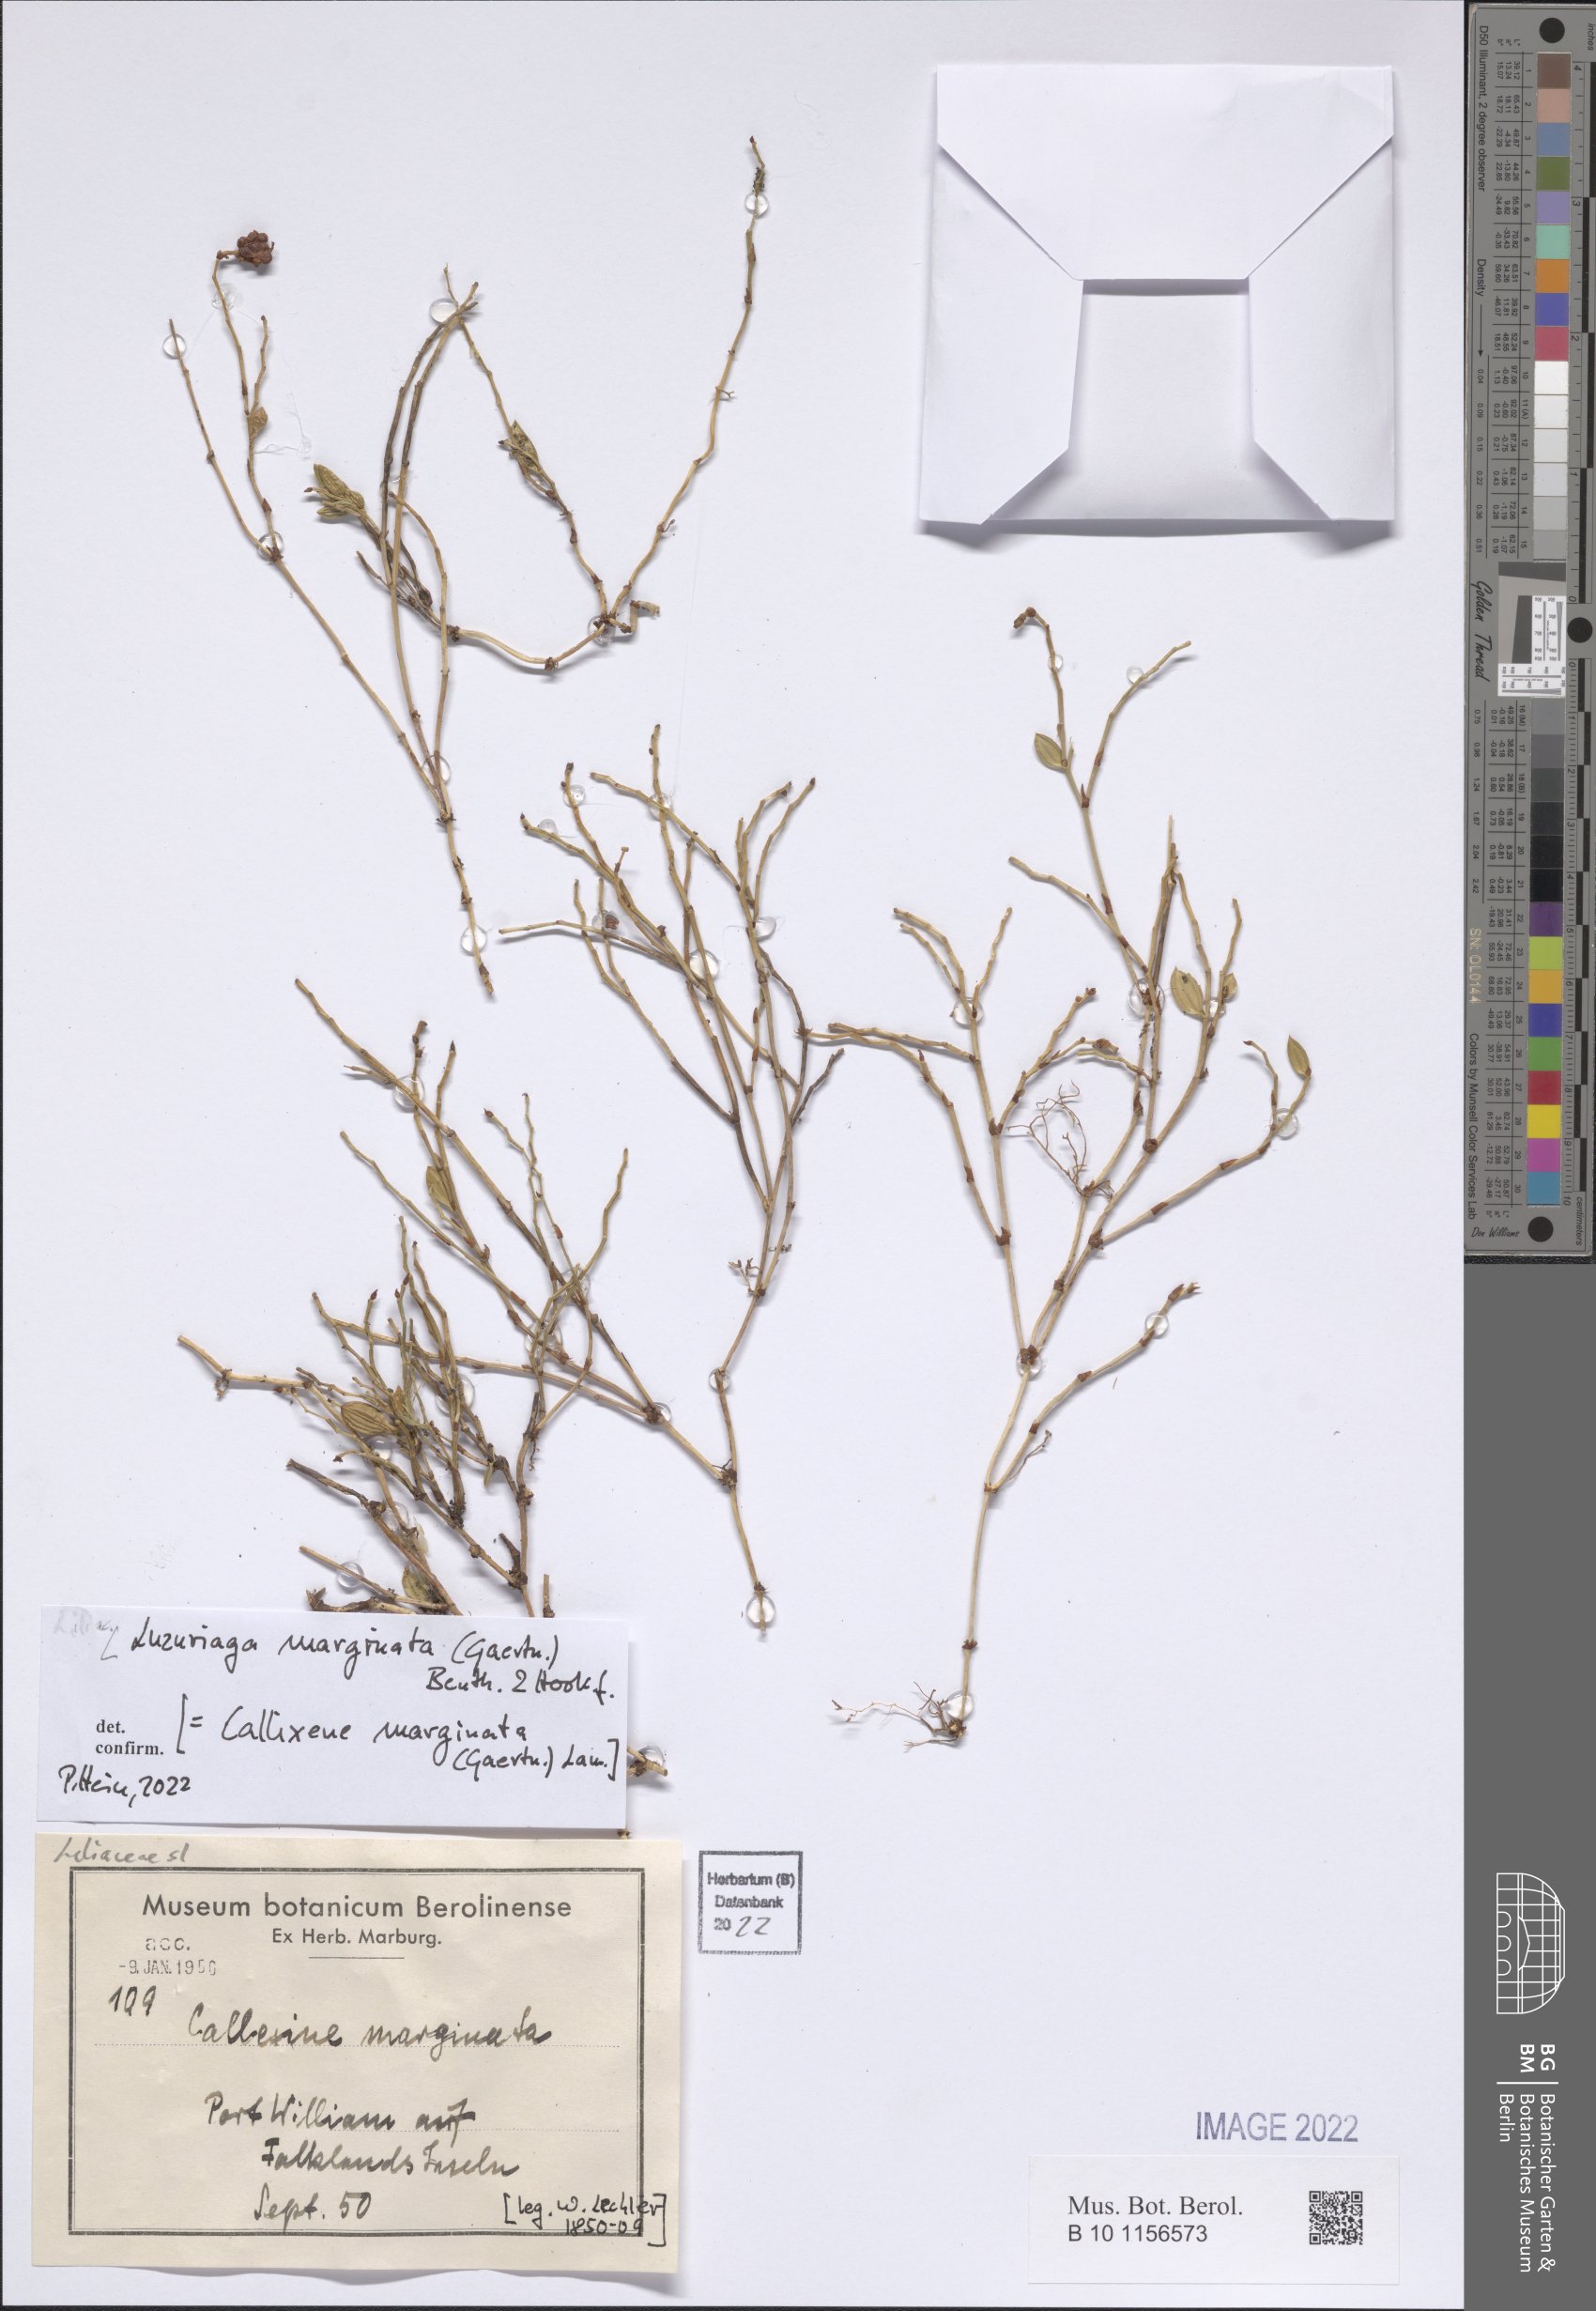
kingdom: Plantae
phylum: Tracheophyta
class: Liliopsida
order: Liliales
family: Alstroemeriaceae
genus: Luzuriaga
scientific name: Luzuriaga marginata
